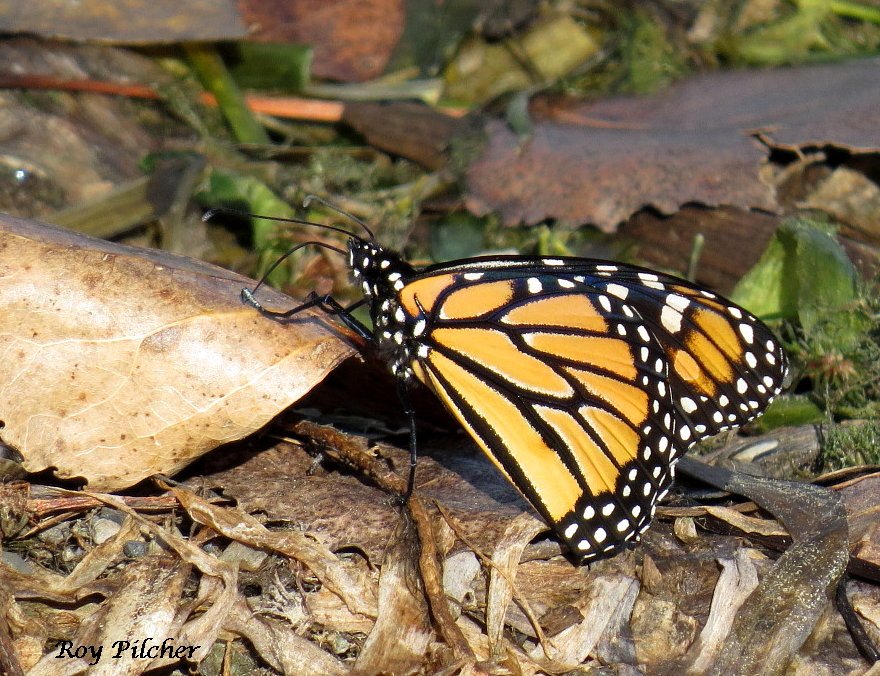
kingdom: Animalia
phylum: Arthropoda
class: Insecta
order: Lepidoptera
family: Nymphalidae
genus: Danaus
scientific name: Danaus plexippus
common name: Monarch
